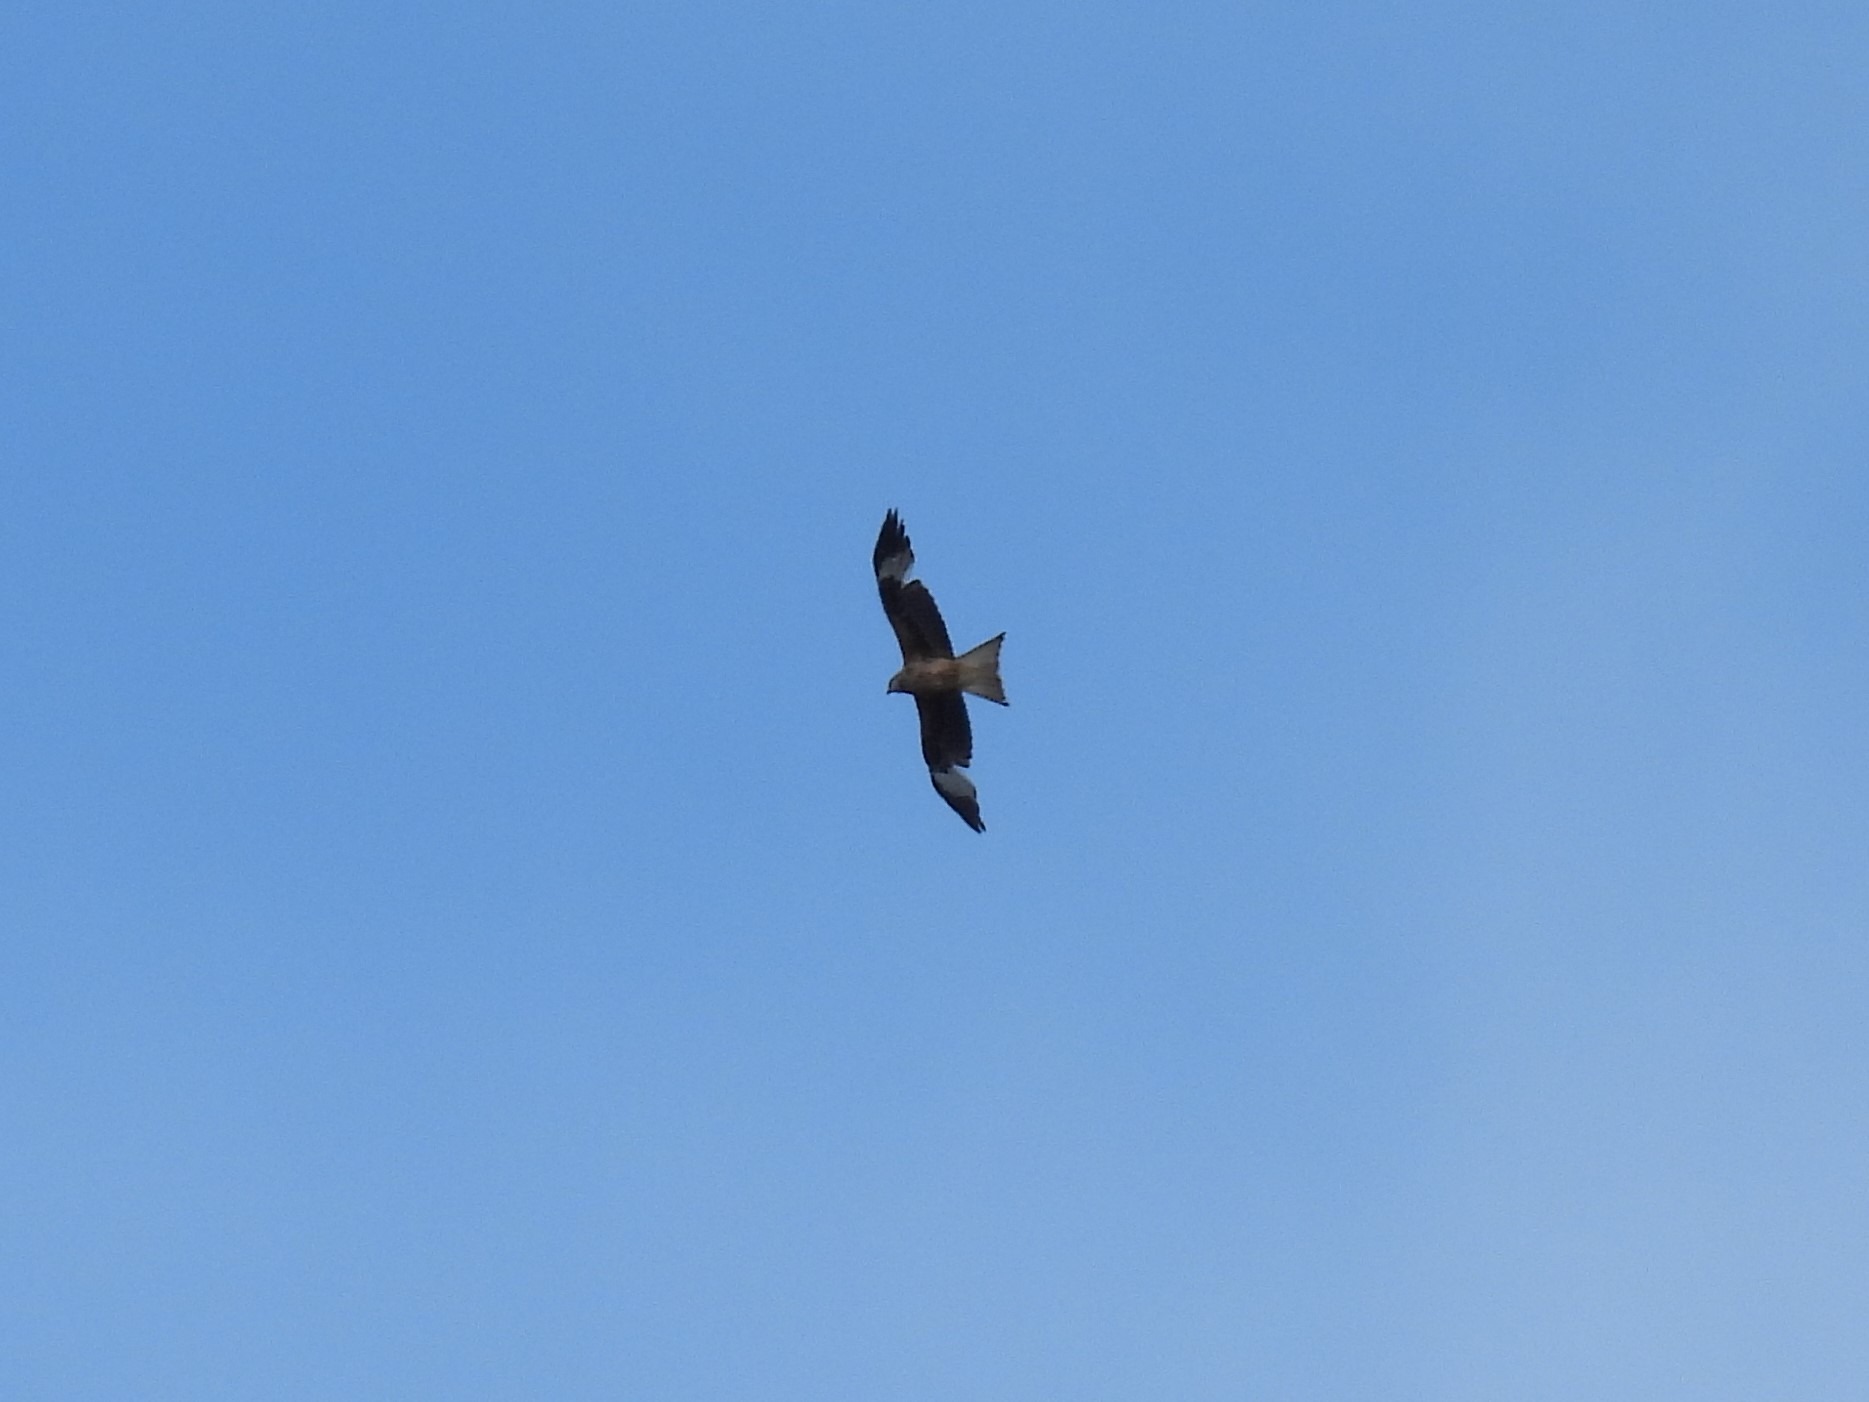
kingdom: Animalia
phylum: Chordata
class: Aves
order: Accipitriformes
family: Accipitridae
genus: Milvus
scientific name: Milvus milvus
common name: Rød glente
